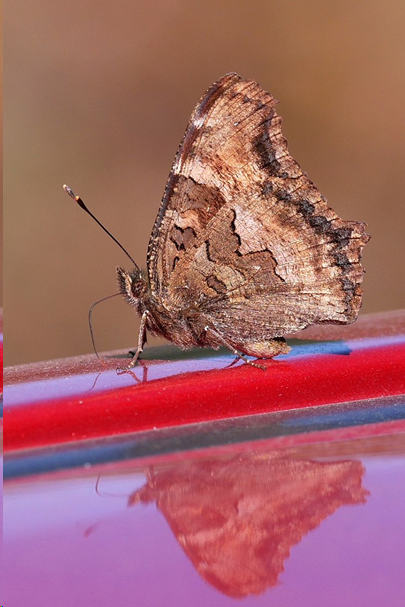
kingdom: Animalia
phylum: Arthropoda
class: Insecta
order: Lepidoptera
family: Nymphalidae
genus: Nymphalis
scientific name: Nymphalis californica
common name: California Tortoiseshell
